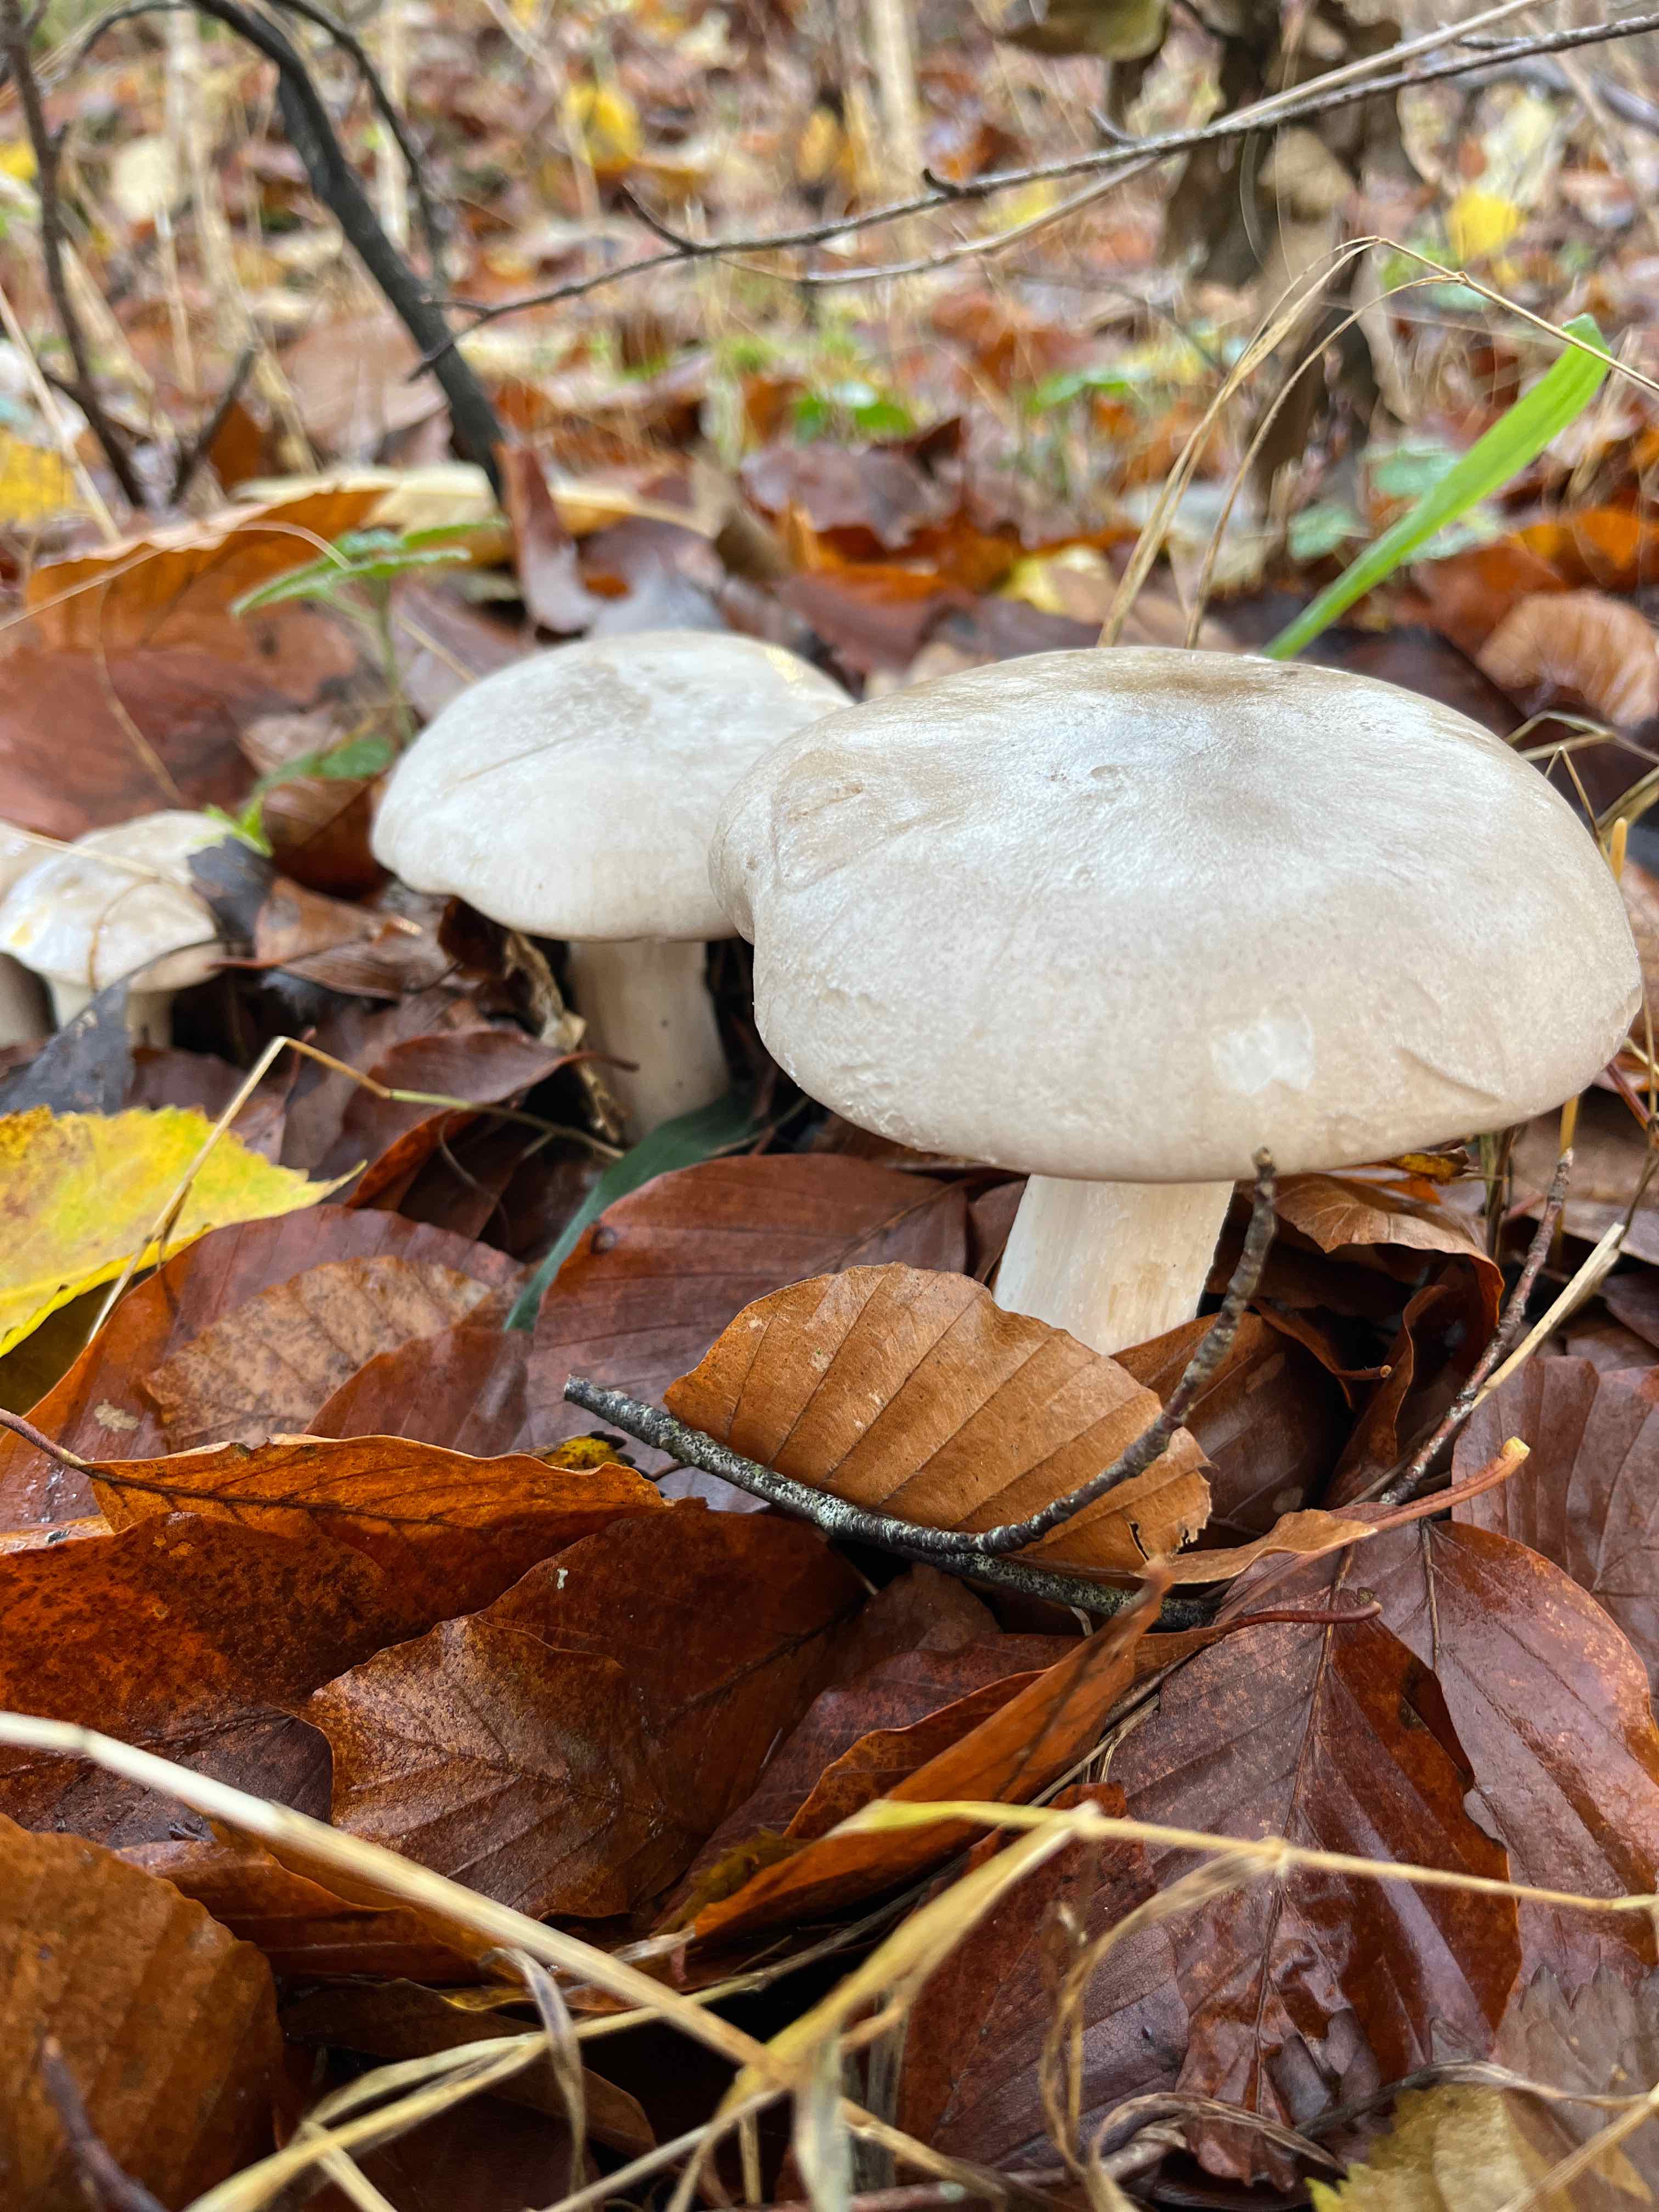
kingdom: Fungi
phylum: Basidiomycota
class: Agaricomycetes
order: Agaricales
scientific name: Agaricales
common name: champignonordenen
